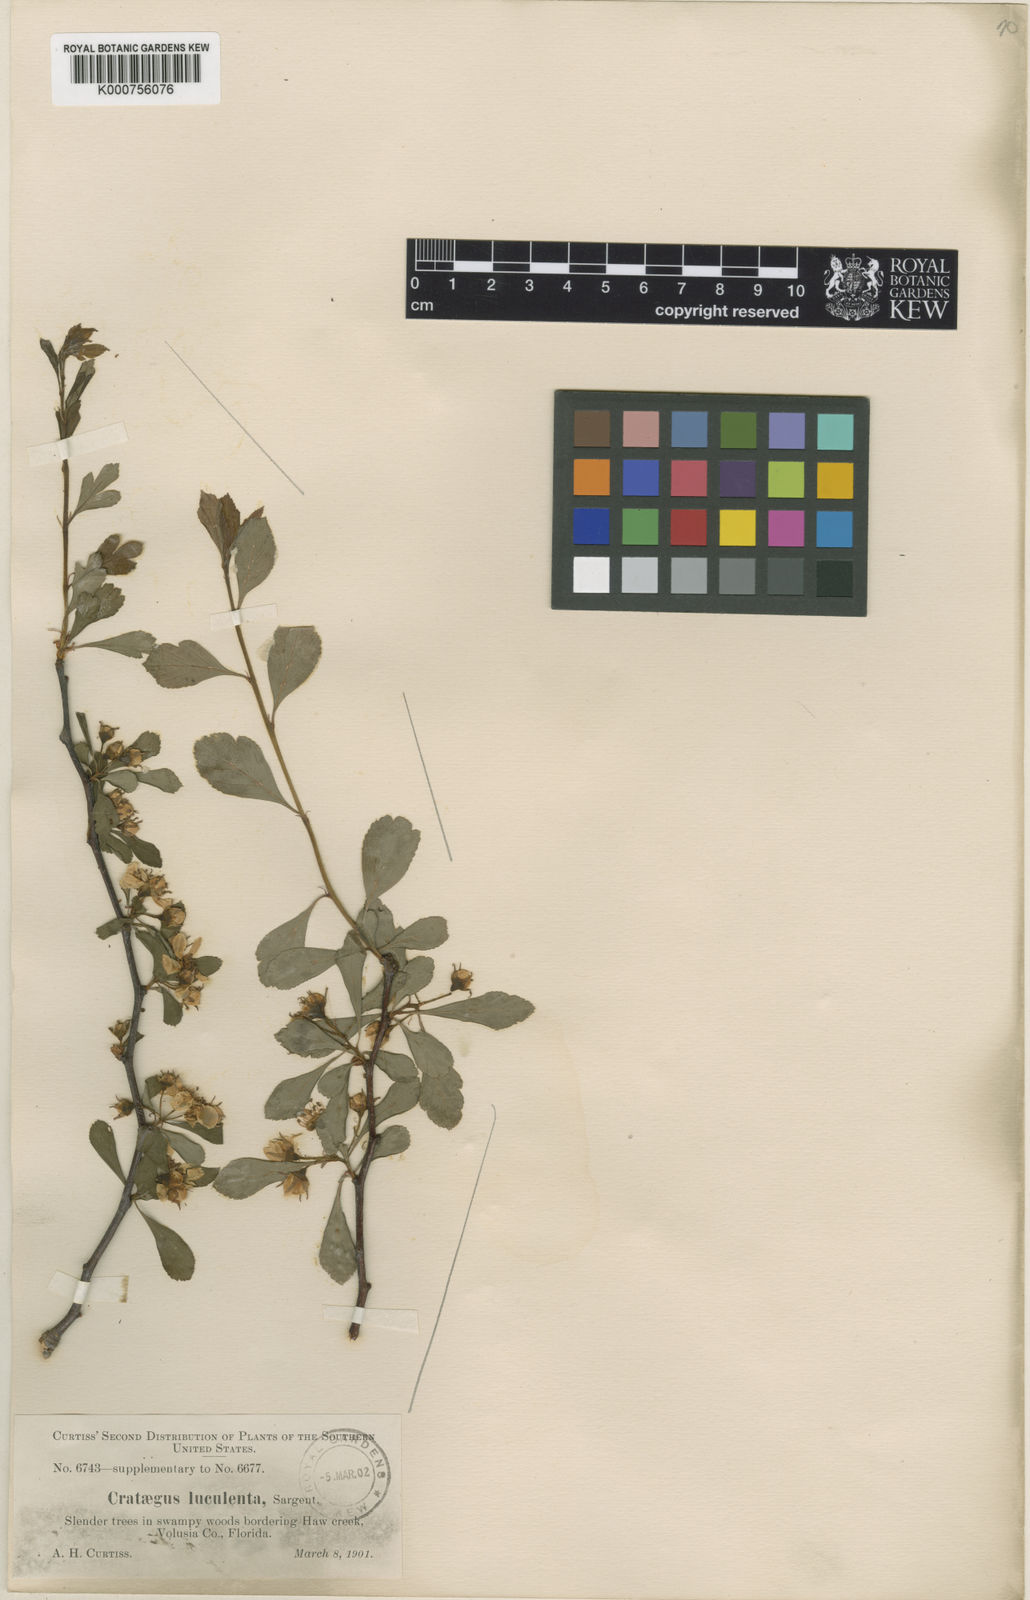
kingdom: Plantae
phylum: Tracheophyta
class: Magnoliopsida
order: Rosales
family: Rosaceae
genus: Crataegus
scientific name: Crataegus aestivalis
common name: Mayhaw
